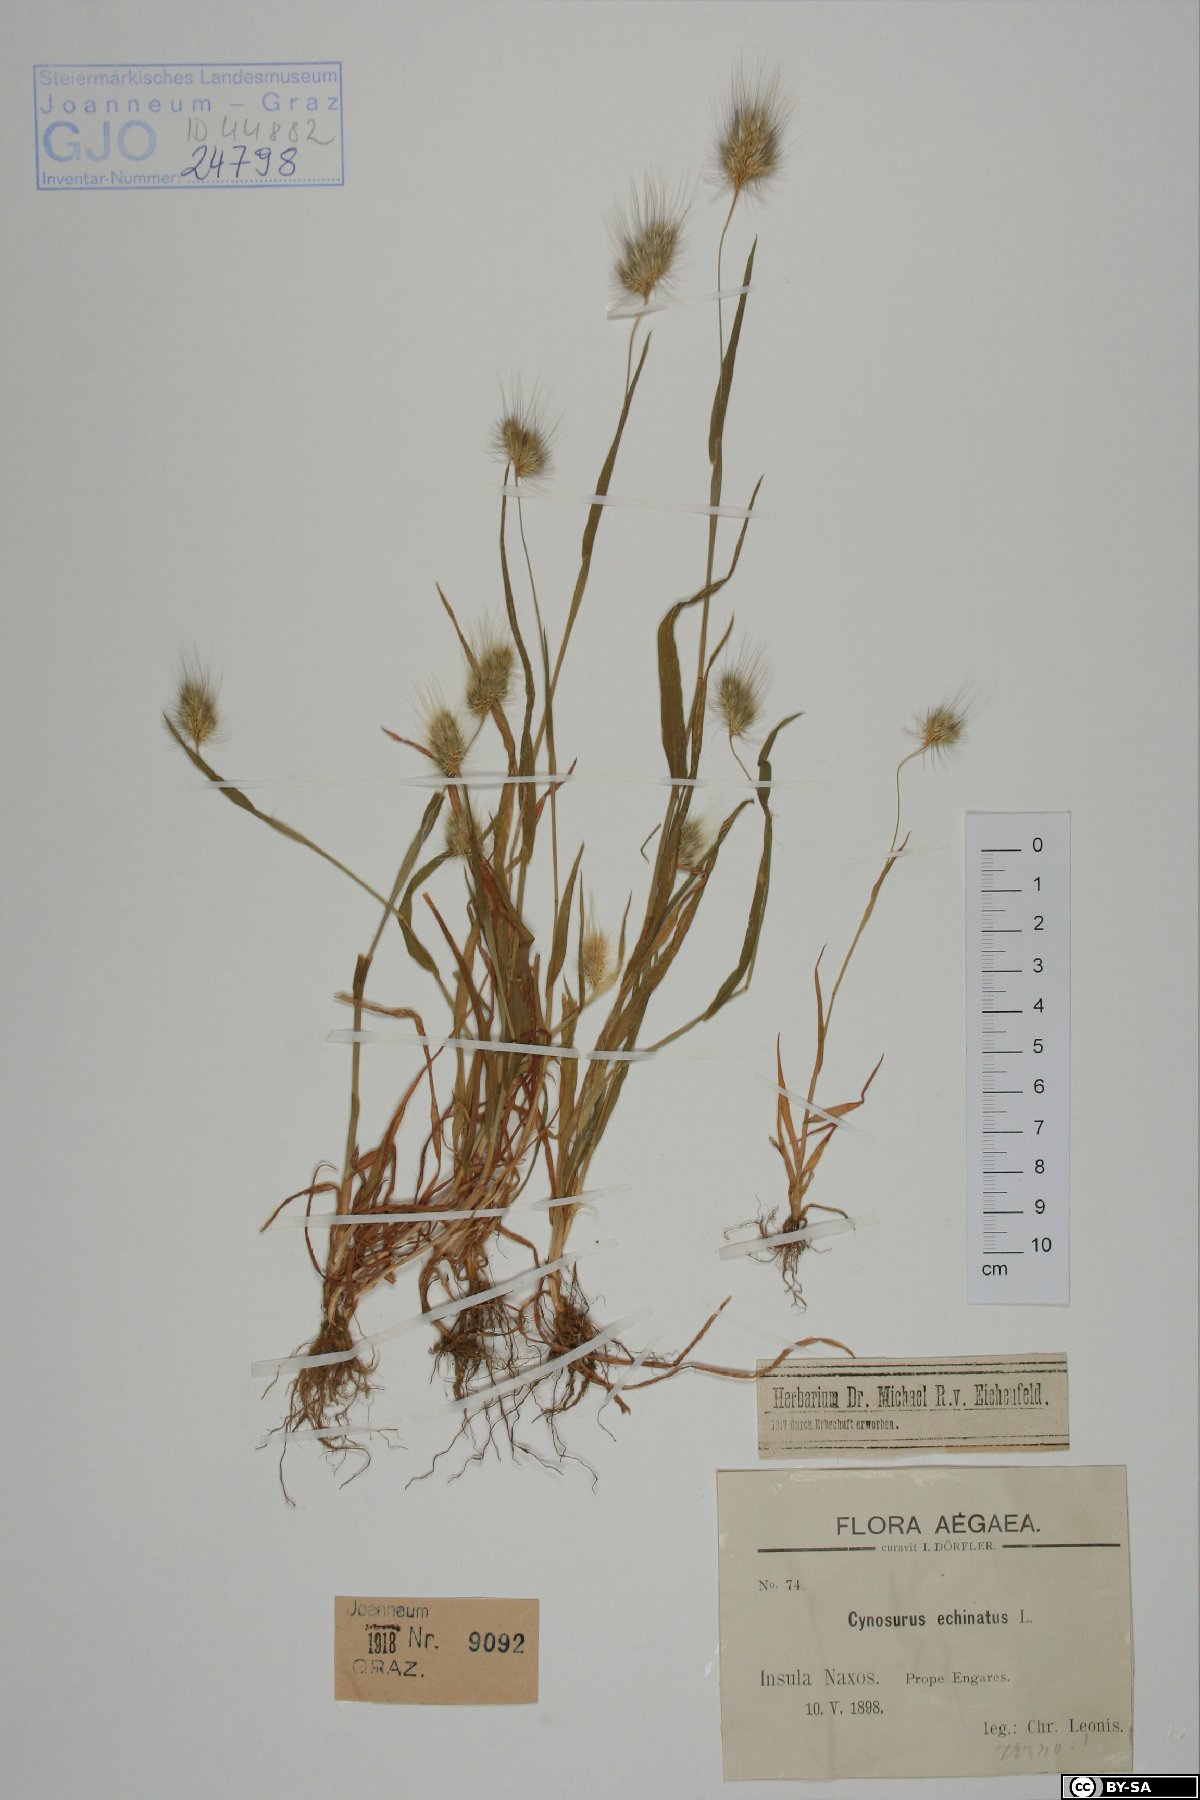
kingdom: Plantae
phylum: Tracheophyta
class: Liliopsida
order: Poales
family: Poaceae
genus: Cynosurus
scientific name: Cynosurus echinatus
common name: Rough dog's-tail
